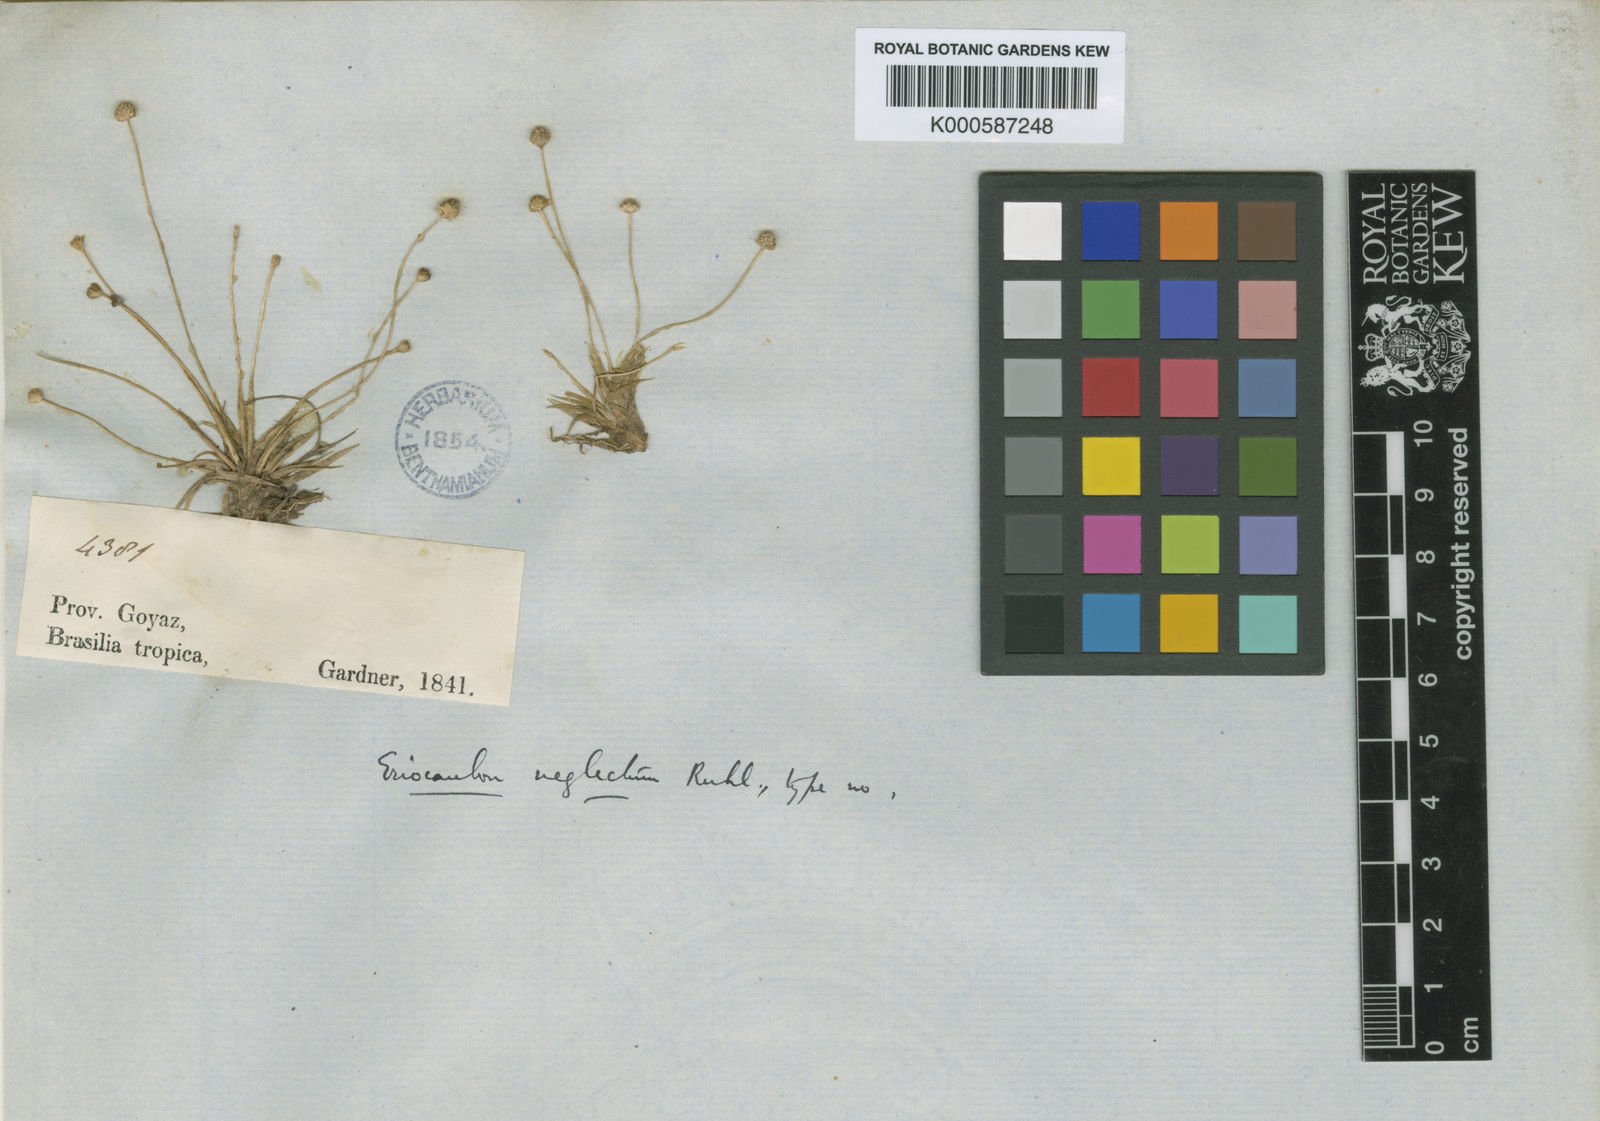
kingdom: Plantae
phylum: Tracheophyta
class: Liliopsida
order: Poales
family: Eriocaulaceae
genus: Eriocaulon
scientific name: Eriocaulon neglectum
